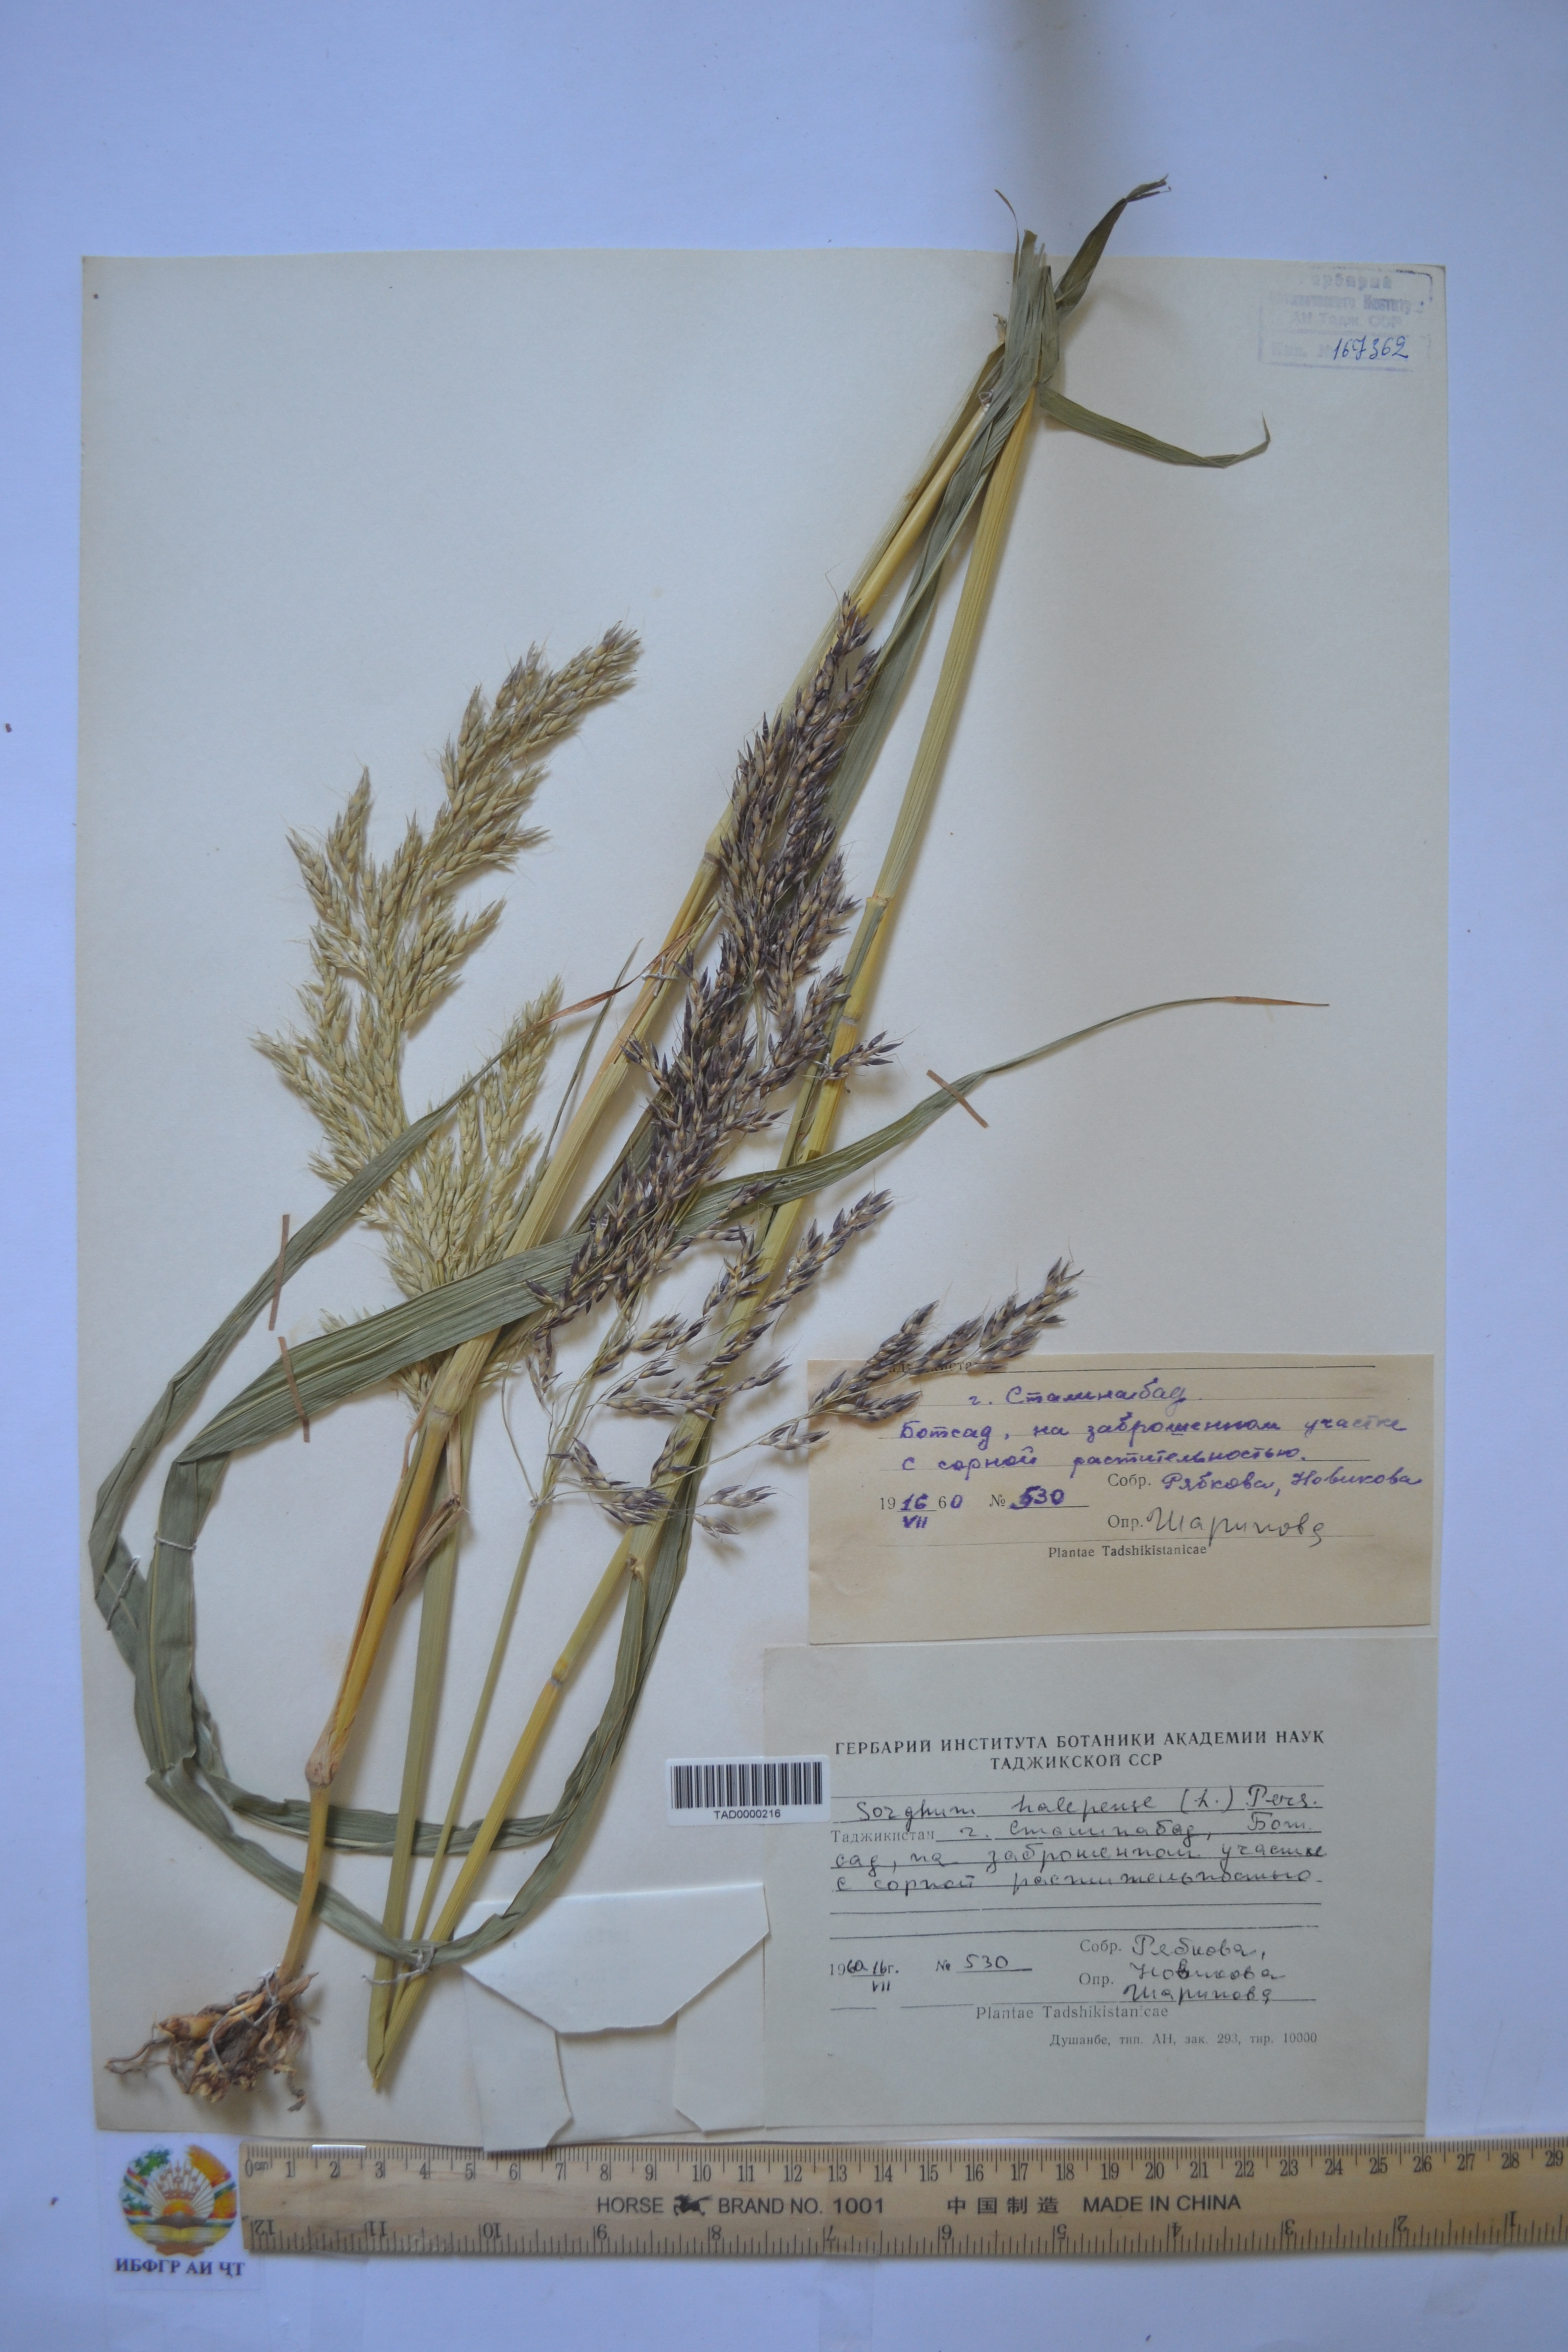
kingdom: Plantae
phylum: Tracheophyta
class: Liliopsida
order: Poales
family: Poaceae
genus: Sorghum
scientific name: Sorghum halepense
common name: Johnson-grass
